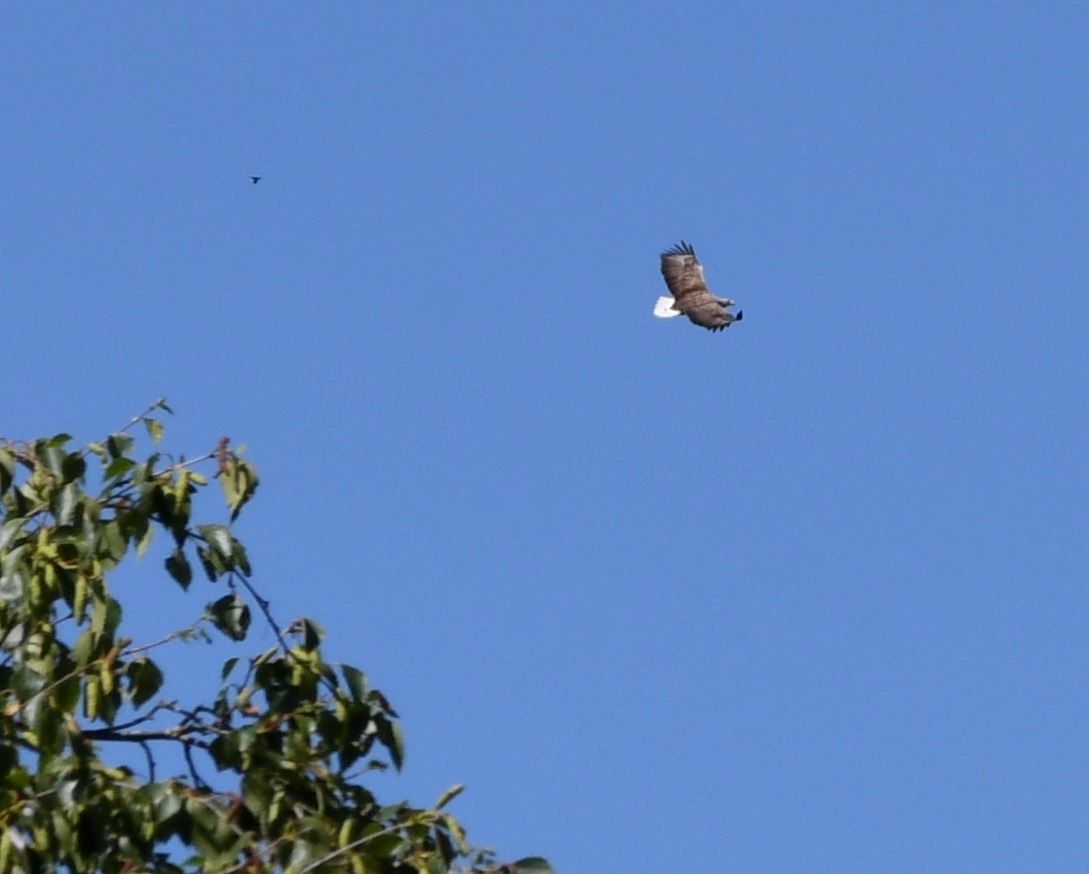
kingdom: Animalia
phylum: Chordata
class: Aves
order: Accipitriformes
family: Accipitridae
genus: Haliaeetus
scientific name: Haliaeetus albicilla
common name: Havørn
